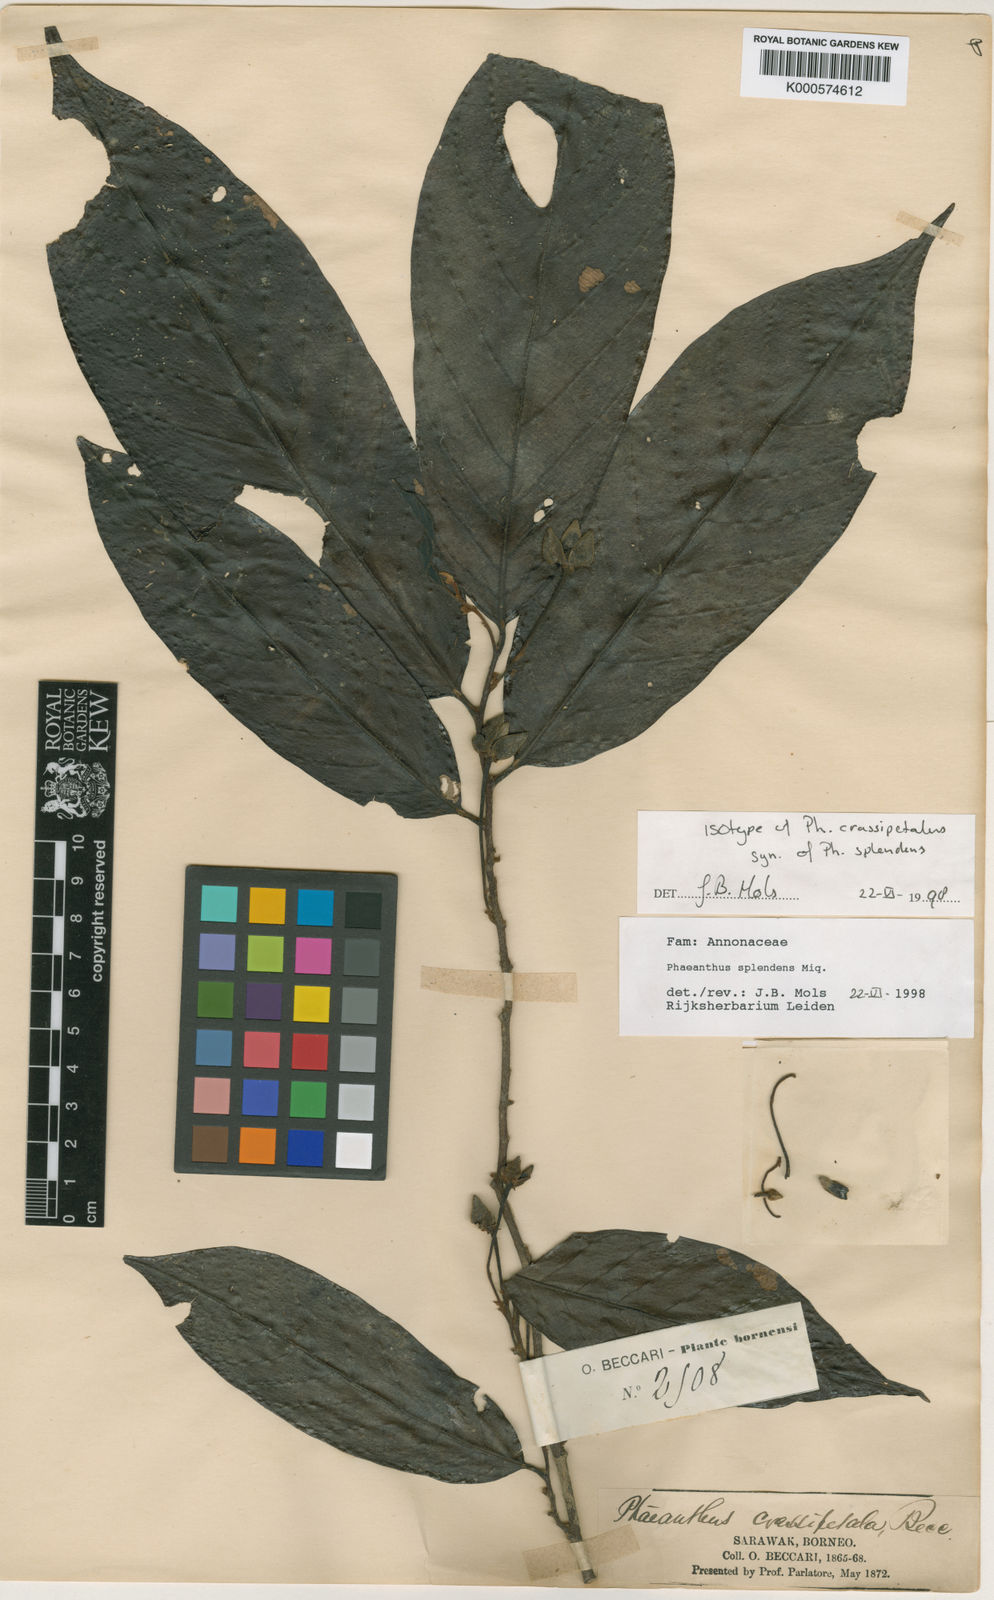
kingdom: Plantae
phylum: Tracheophyta
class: Magnoliopsida
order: Magnoliales
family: Annonaceae
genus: Phaeanthus
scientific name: Phaeanthus splendens
